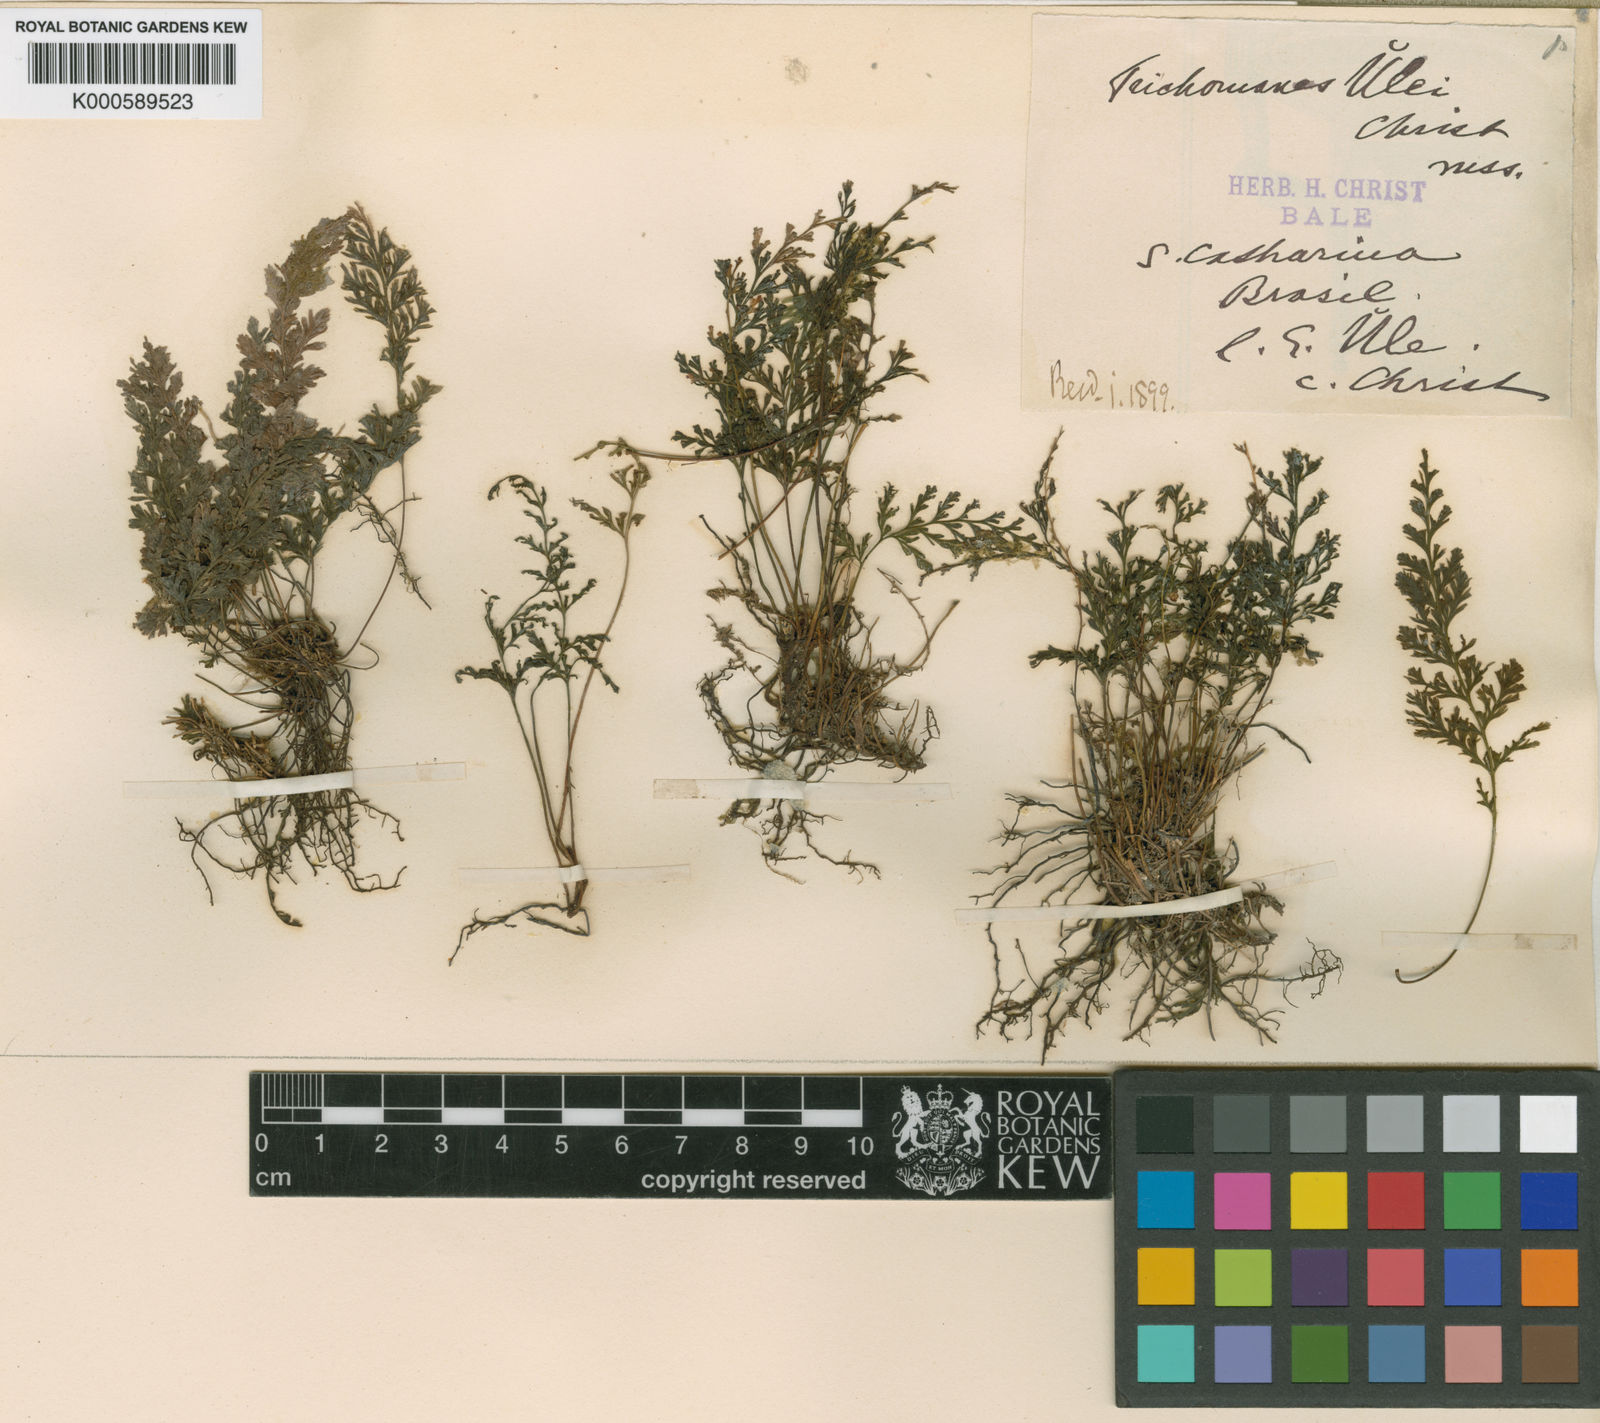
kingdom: Plantae
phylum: Tracheophyta
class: Polypodiopsida
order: Hymenophyllales
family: Hymenophyllaceae
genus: Abrodictyum
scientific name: Abrodictyum rigidum
